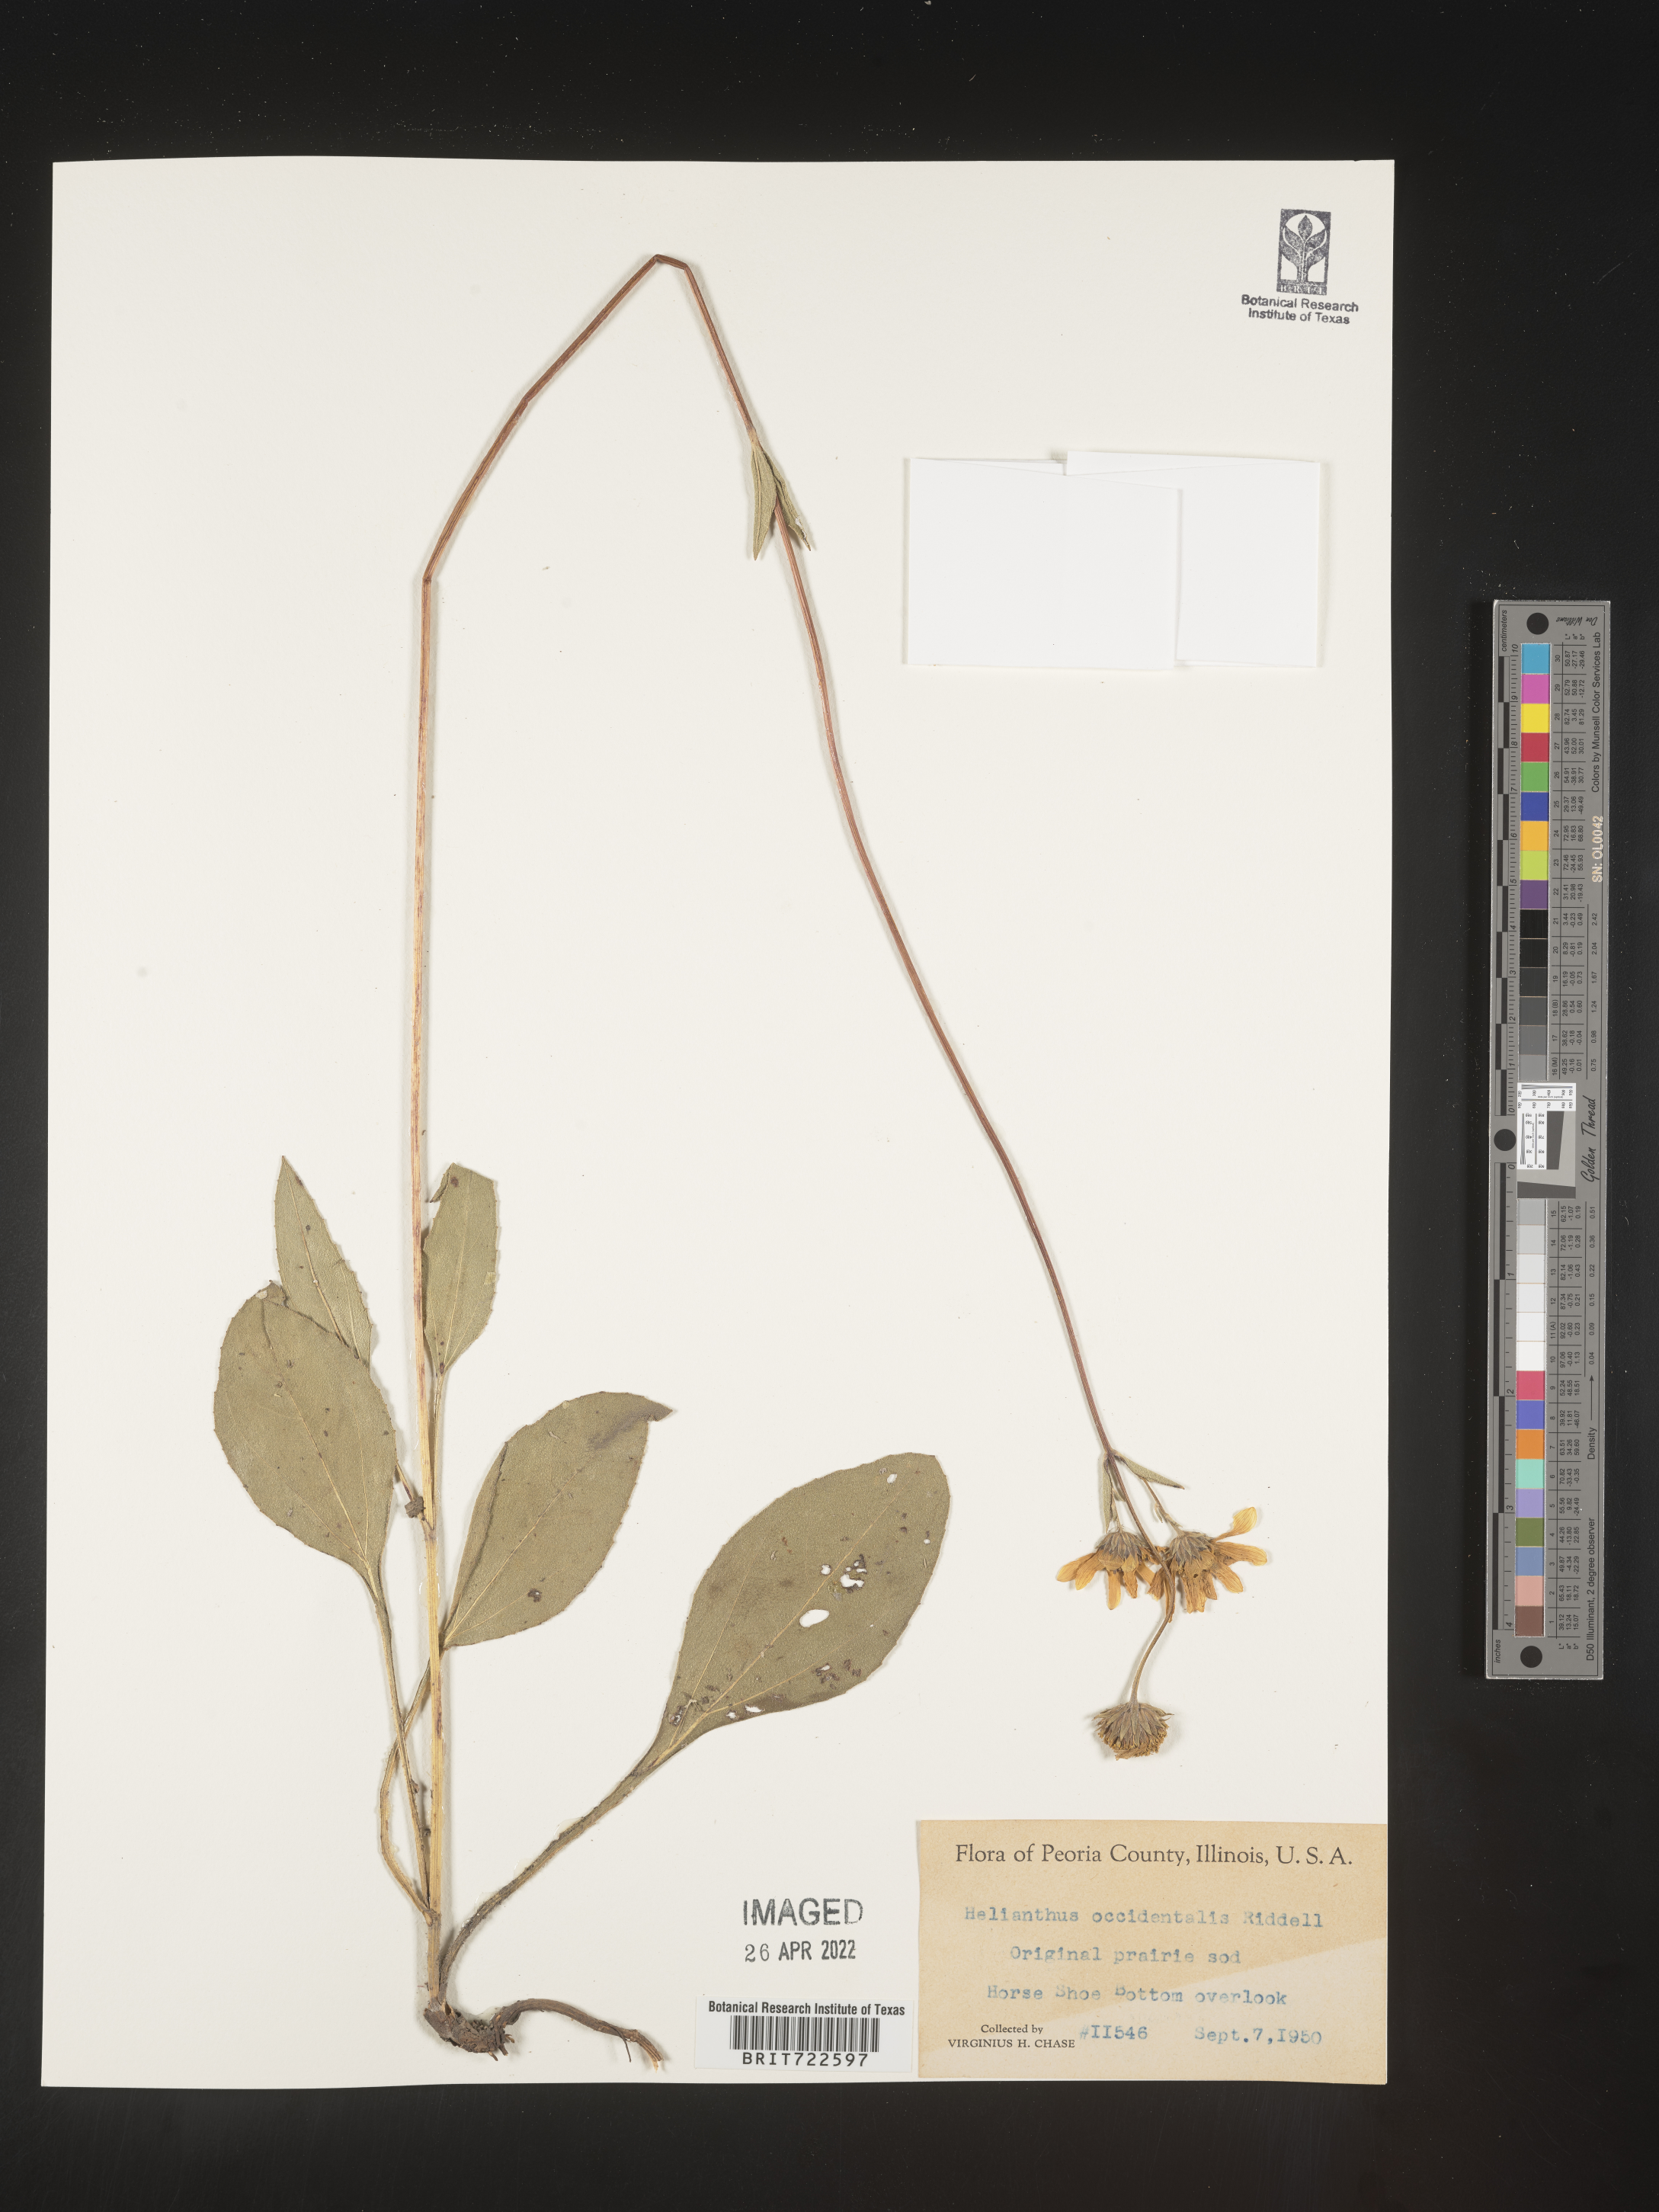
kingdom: Plantae
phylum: Tracheophyta
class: Magnoliopsida
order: Asterales
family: Asteraceae
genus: Helianthus
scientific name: Helianthus occidentalis
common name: Western sunflower
